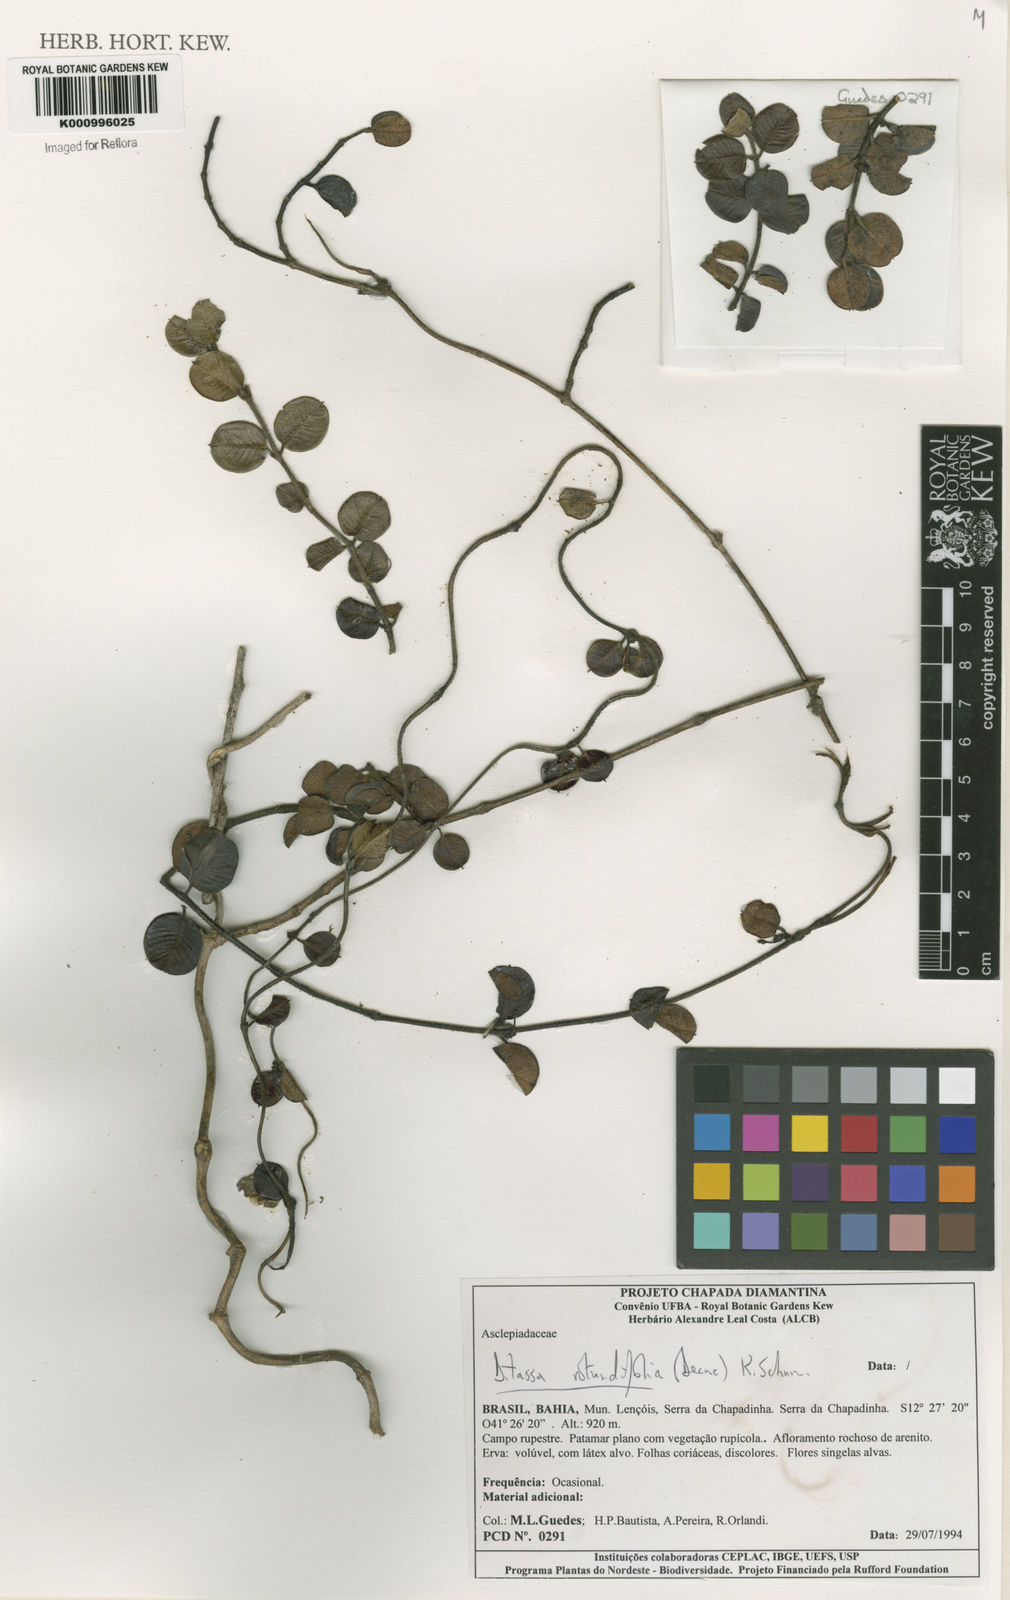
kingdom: Plantae
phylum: Tracheophyta
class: Magnoliopsida
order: Gentianales
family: Apocynaceae
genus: Ditassa
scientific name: Ditassa
